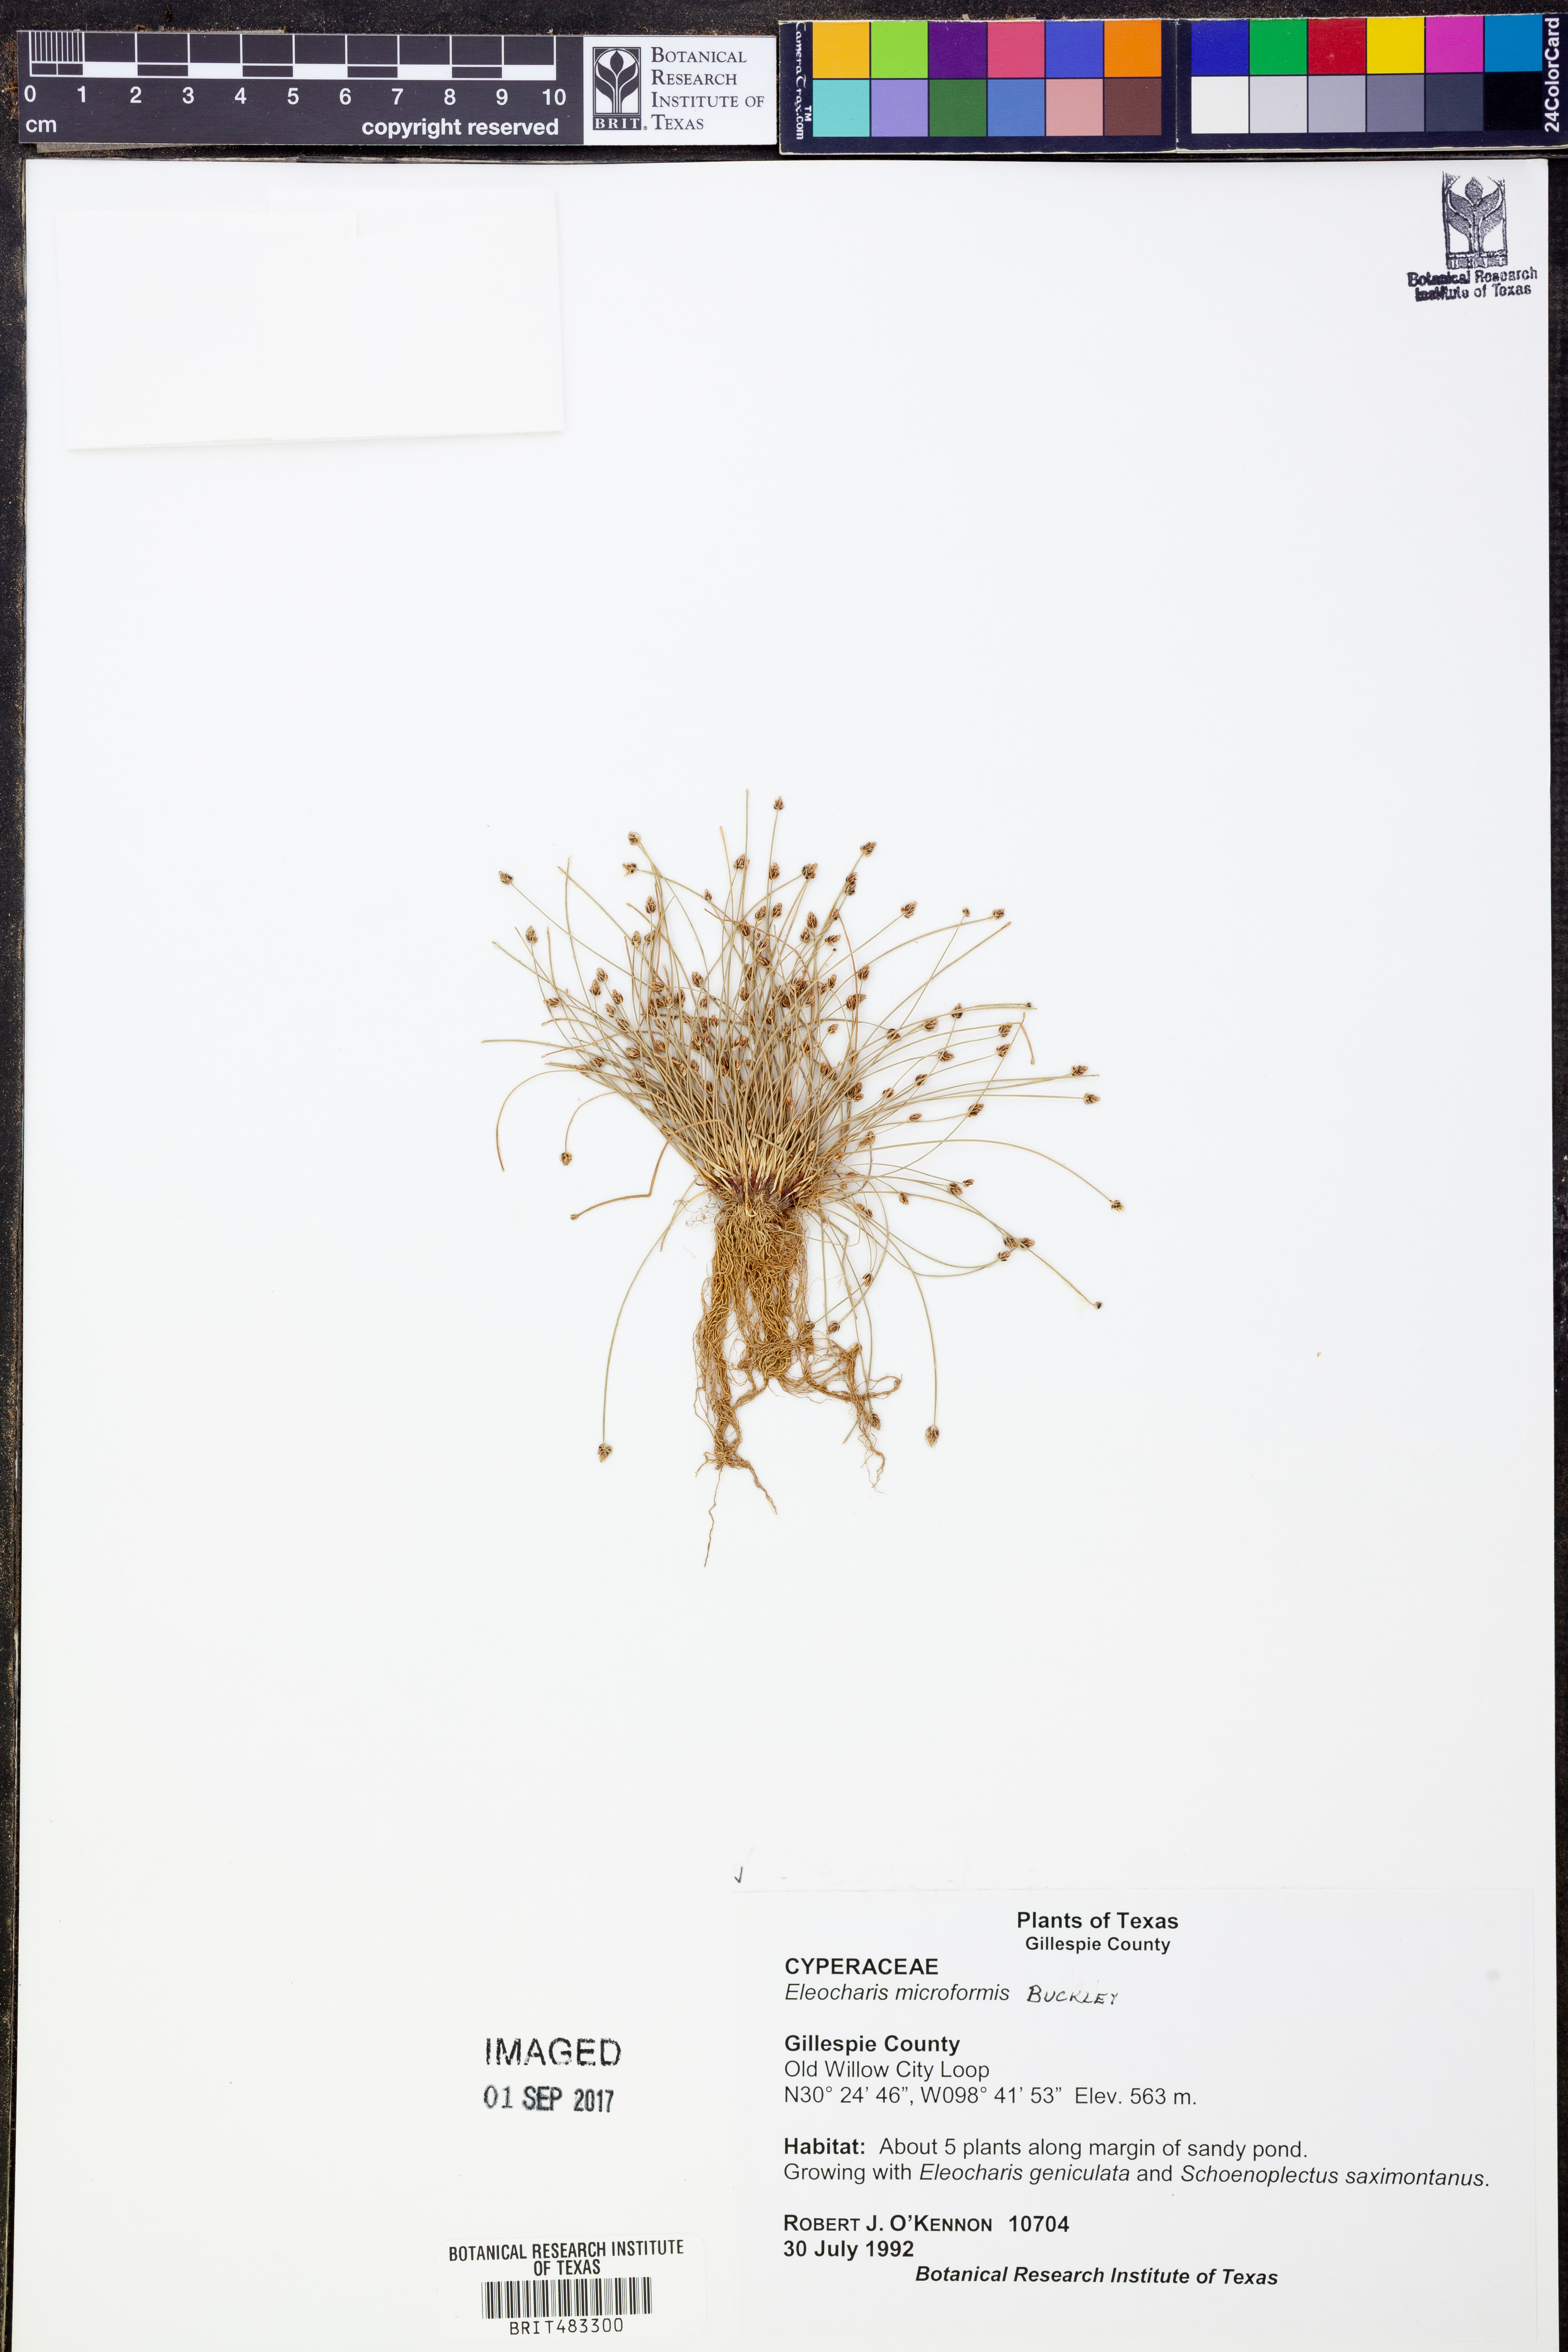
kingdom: Plantae
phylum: Tracheophyta
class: Liliopsida
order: Poales
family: Cyperaceae
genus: Eleocharis
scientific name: Eleocharis microformis
